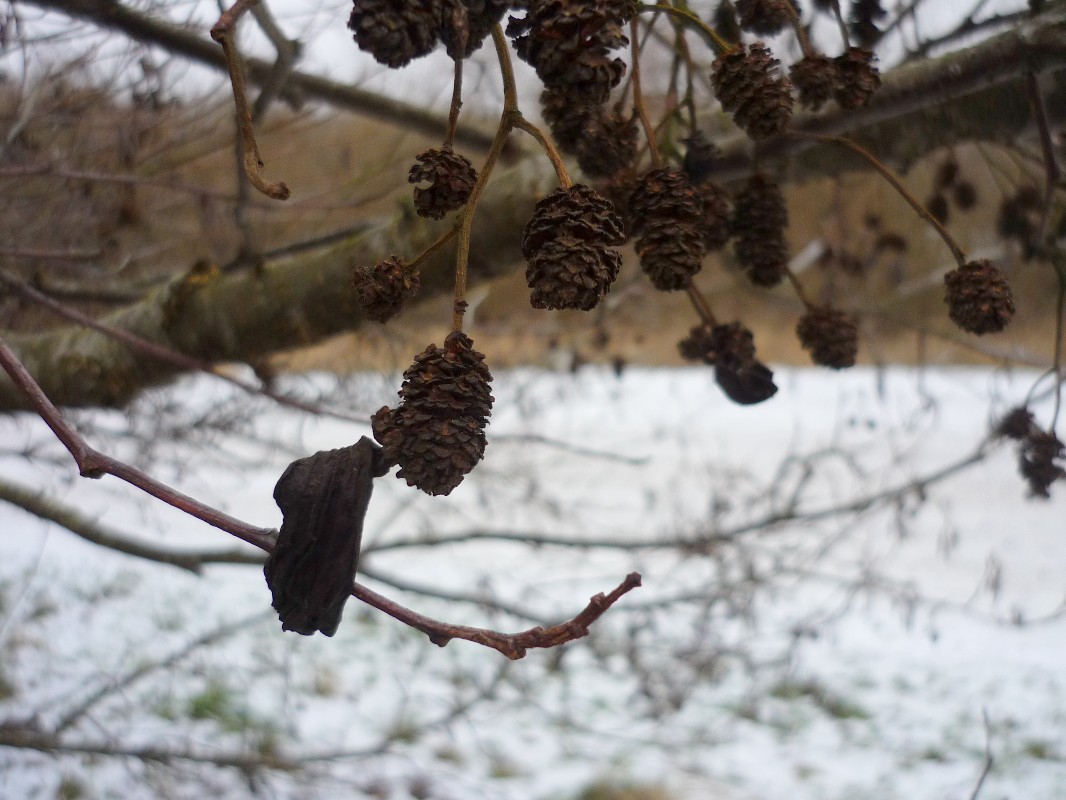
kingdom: Fungi
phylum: Ascomycota
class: Taphrinomycetes
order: Taphrinales
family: Taphrinaceae
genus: Taphrina
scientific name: Taphrina alni
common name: Alder tongue
